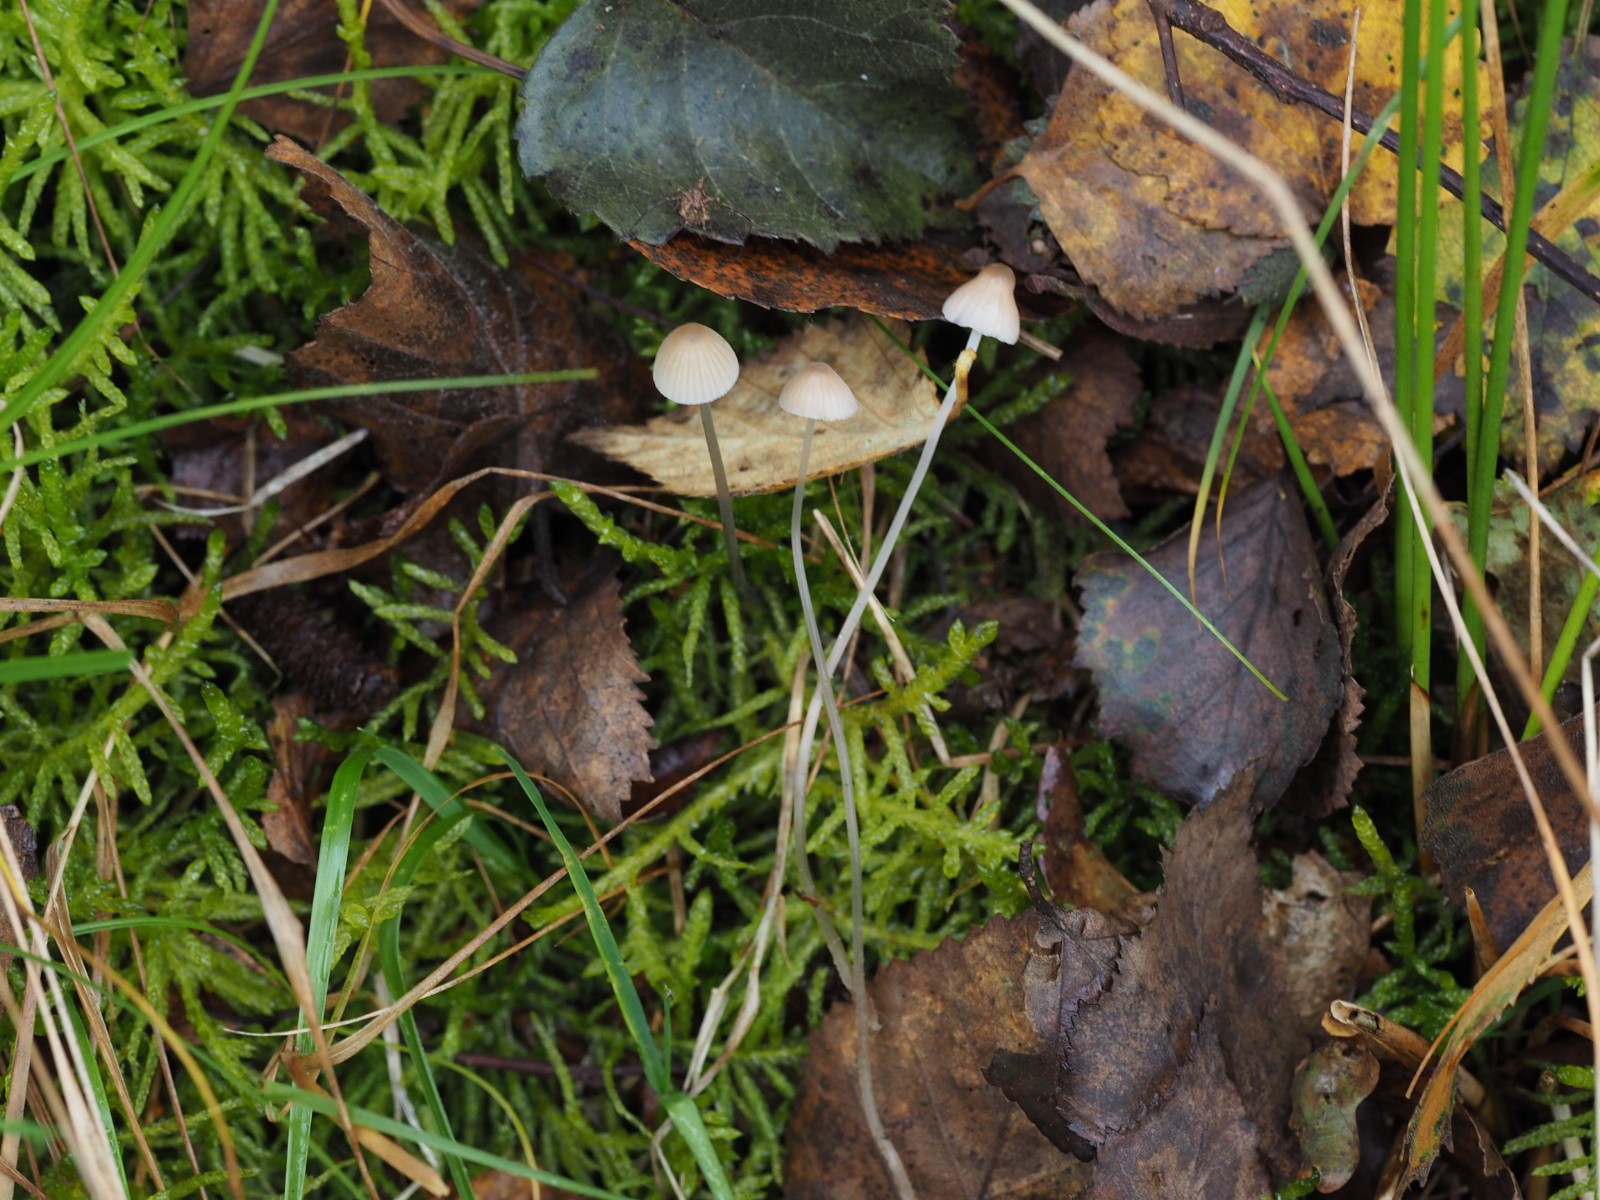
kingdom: Fungi
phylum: Basidiomycota
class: Agaricomycetes
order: Agaricales
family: Mycenaceae
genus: Mycena
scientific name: Mycena
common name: huesvamp
